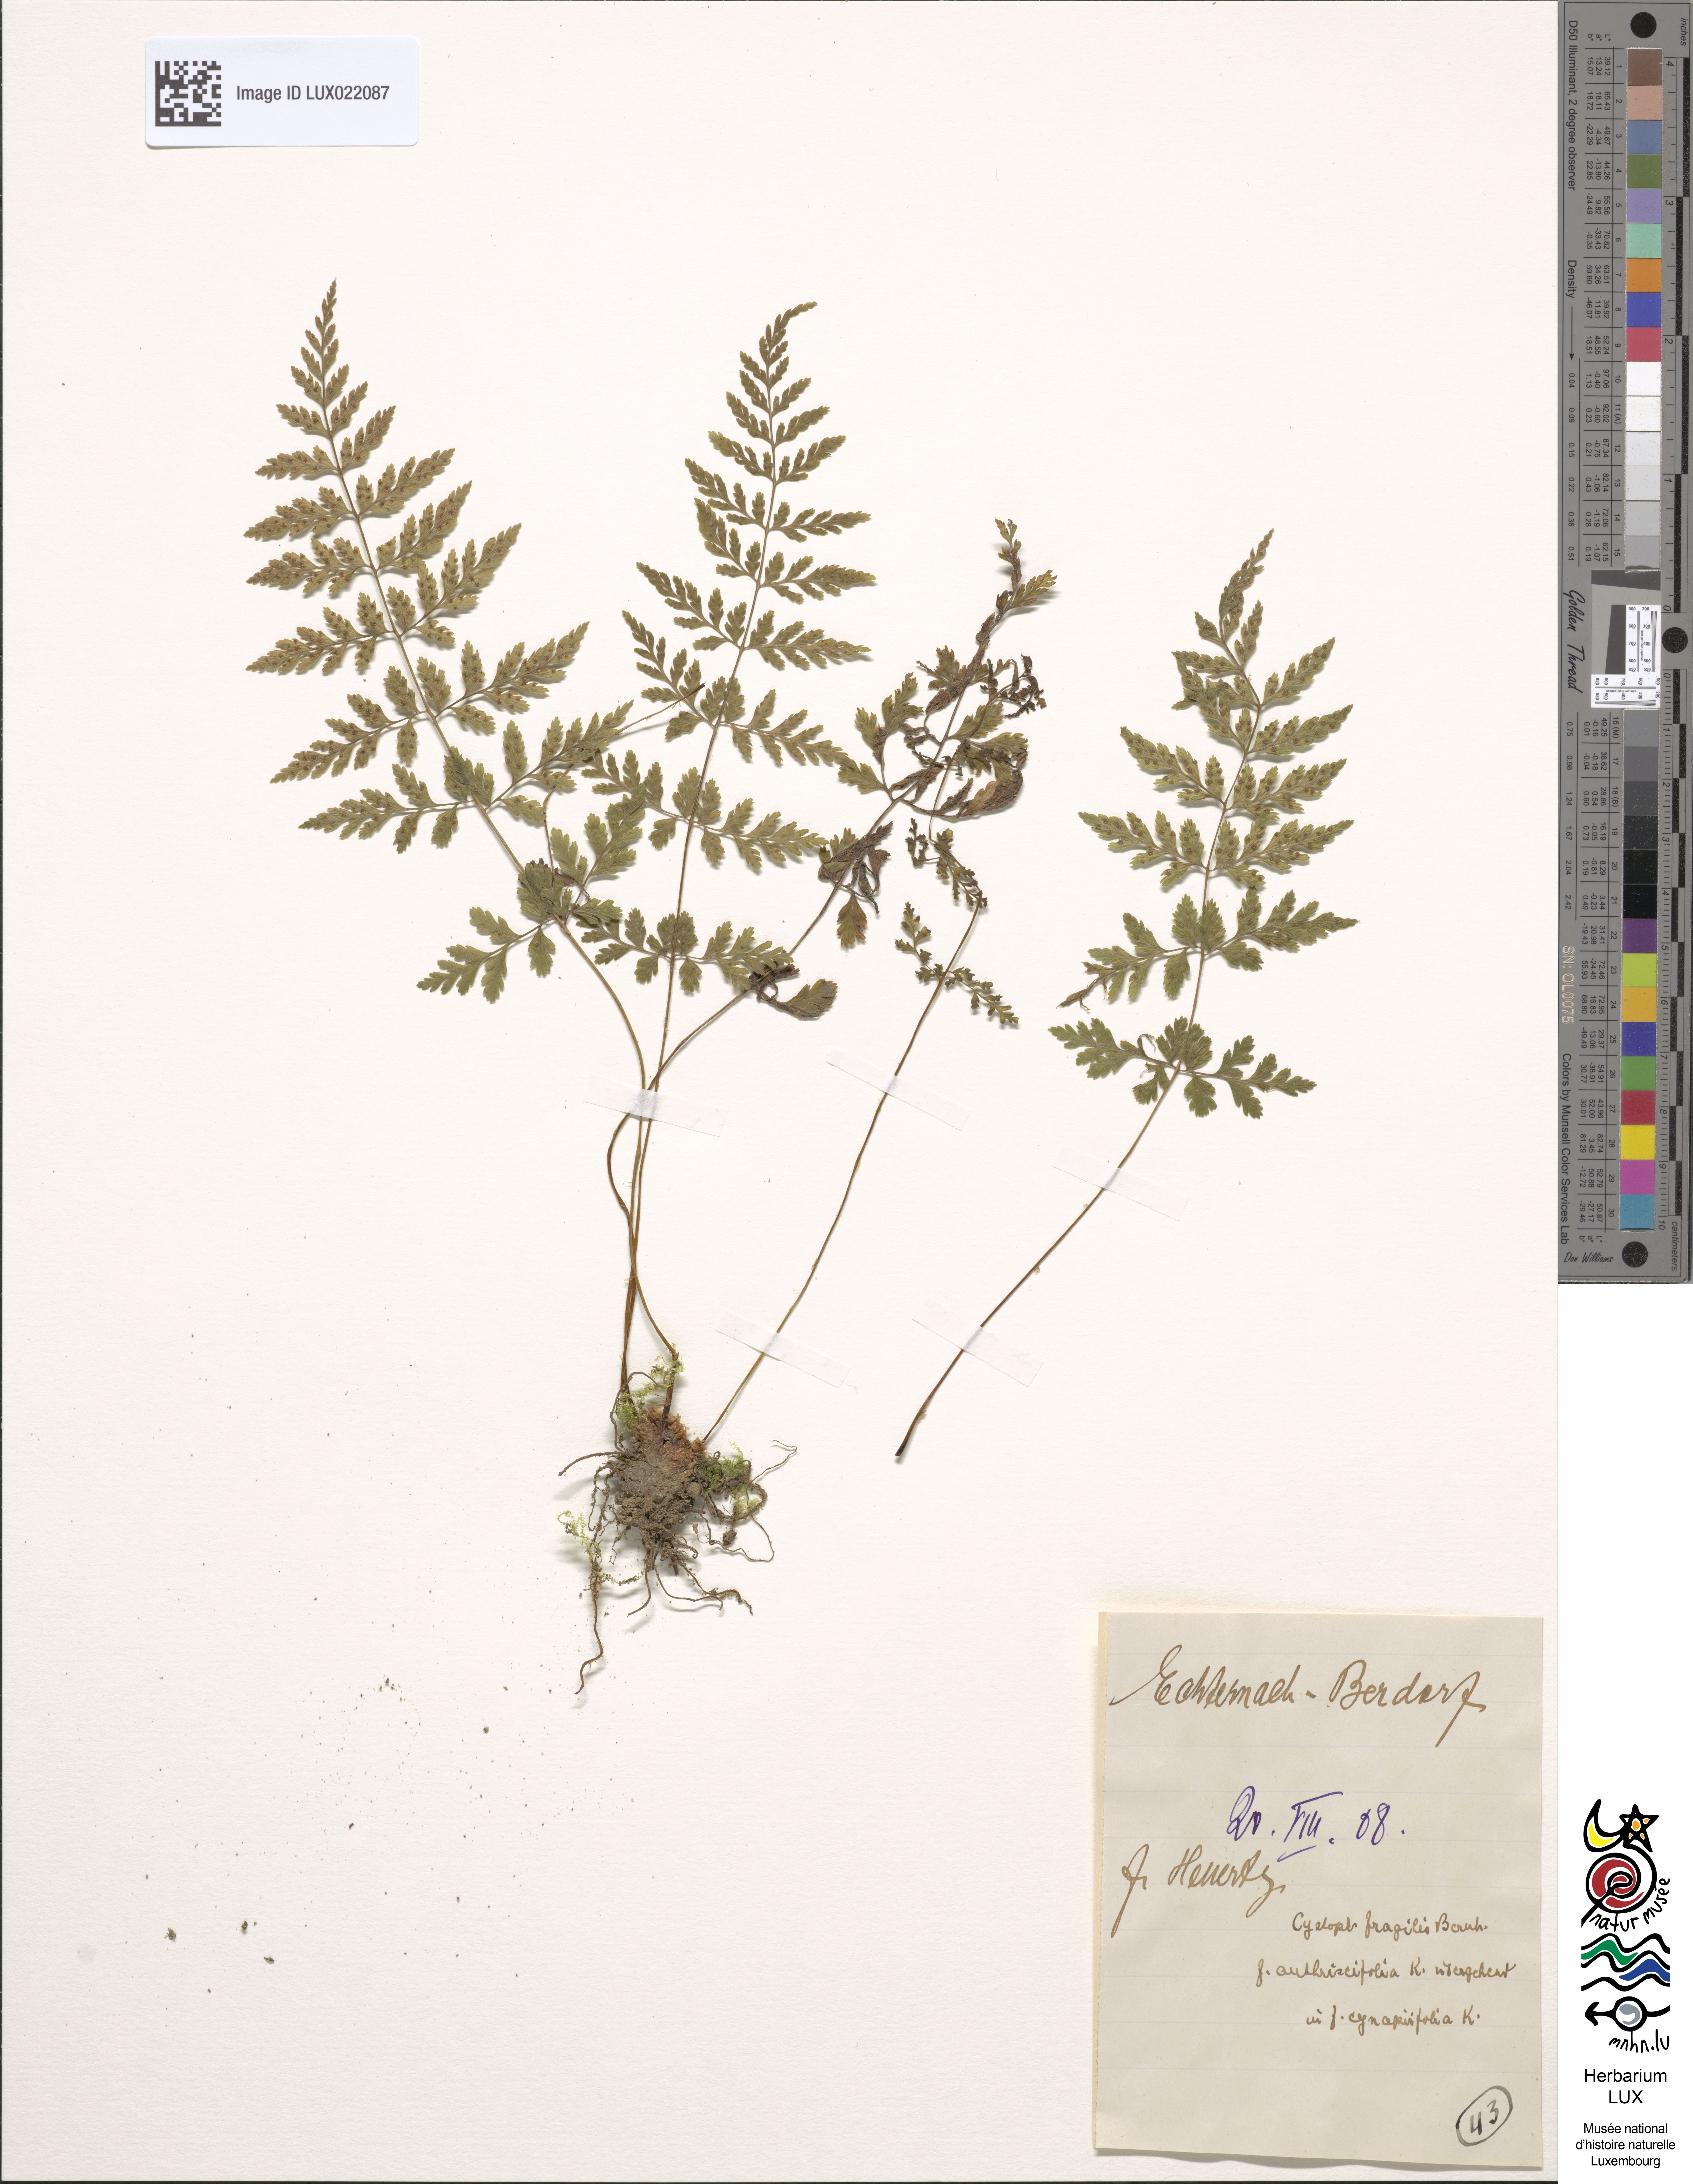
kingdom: Plantae
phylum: Tracheophyta
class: Polypodiopsida
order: Polypodiales
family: Cystopteridaceae
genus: Cystopteris
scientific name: Cystopteris fragilis
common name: Brittle bladder fern
